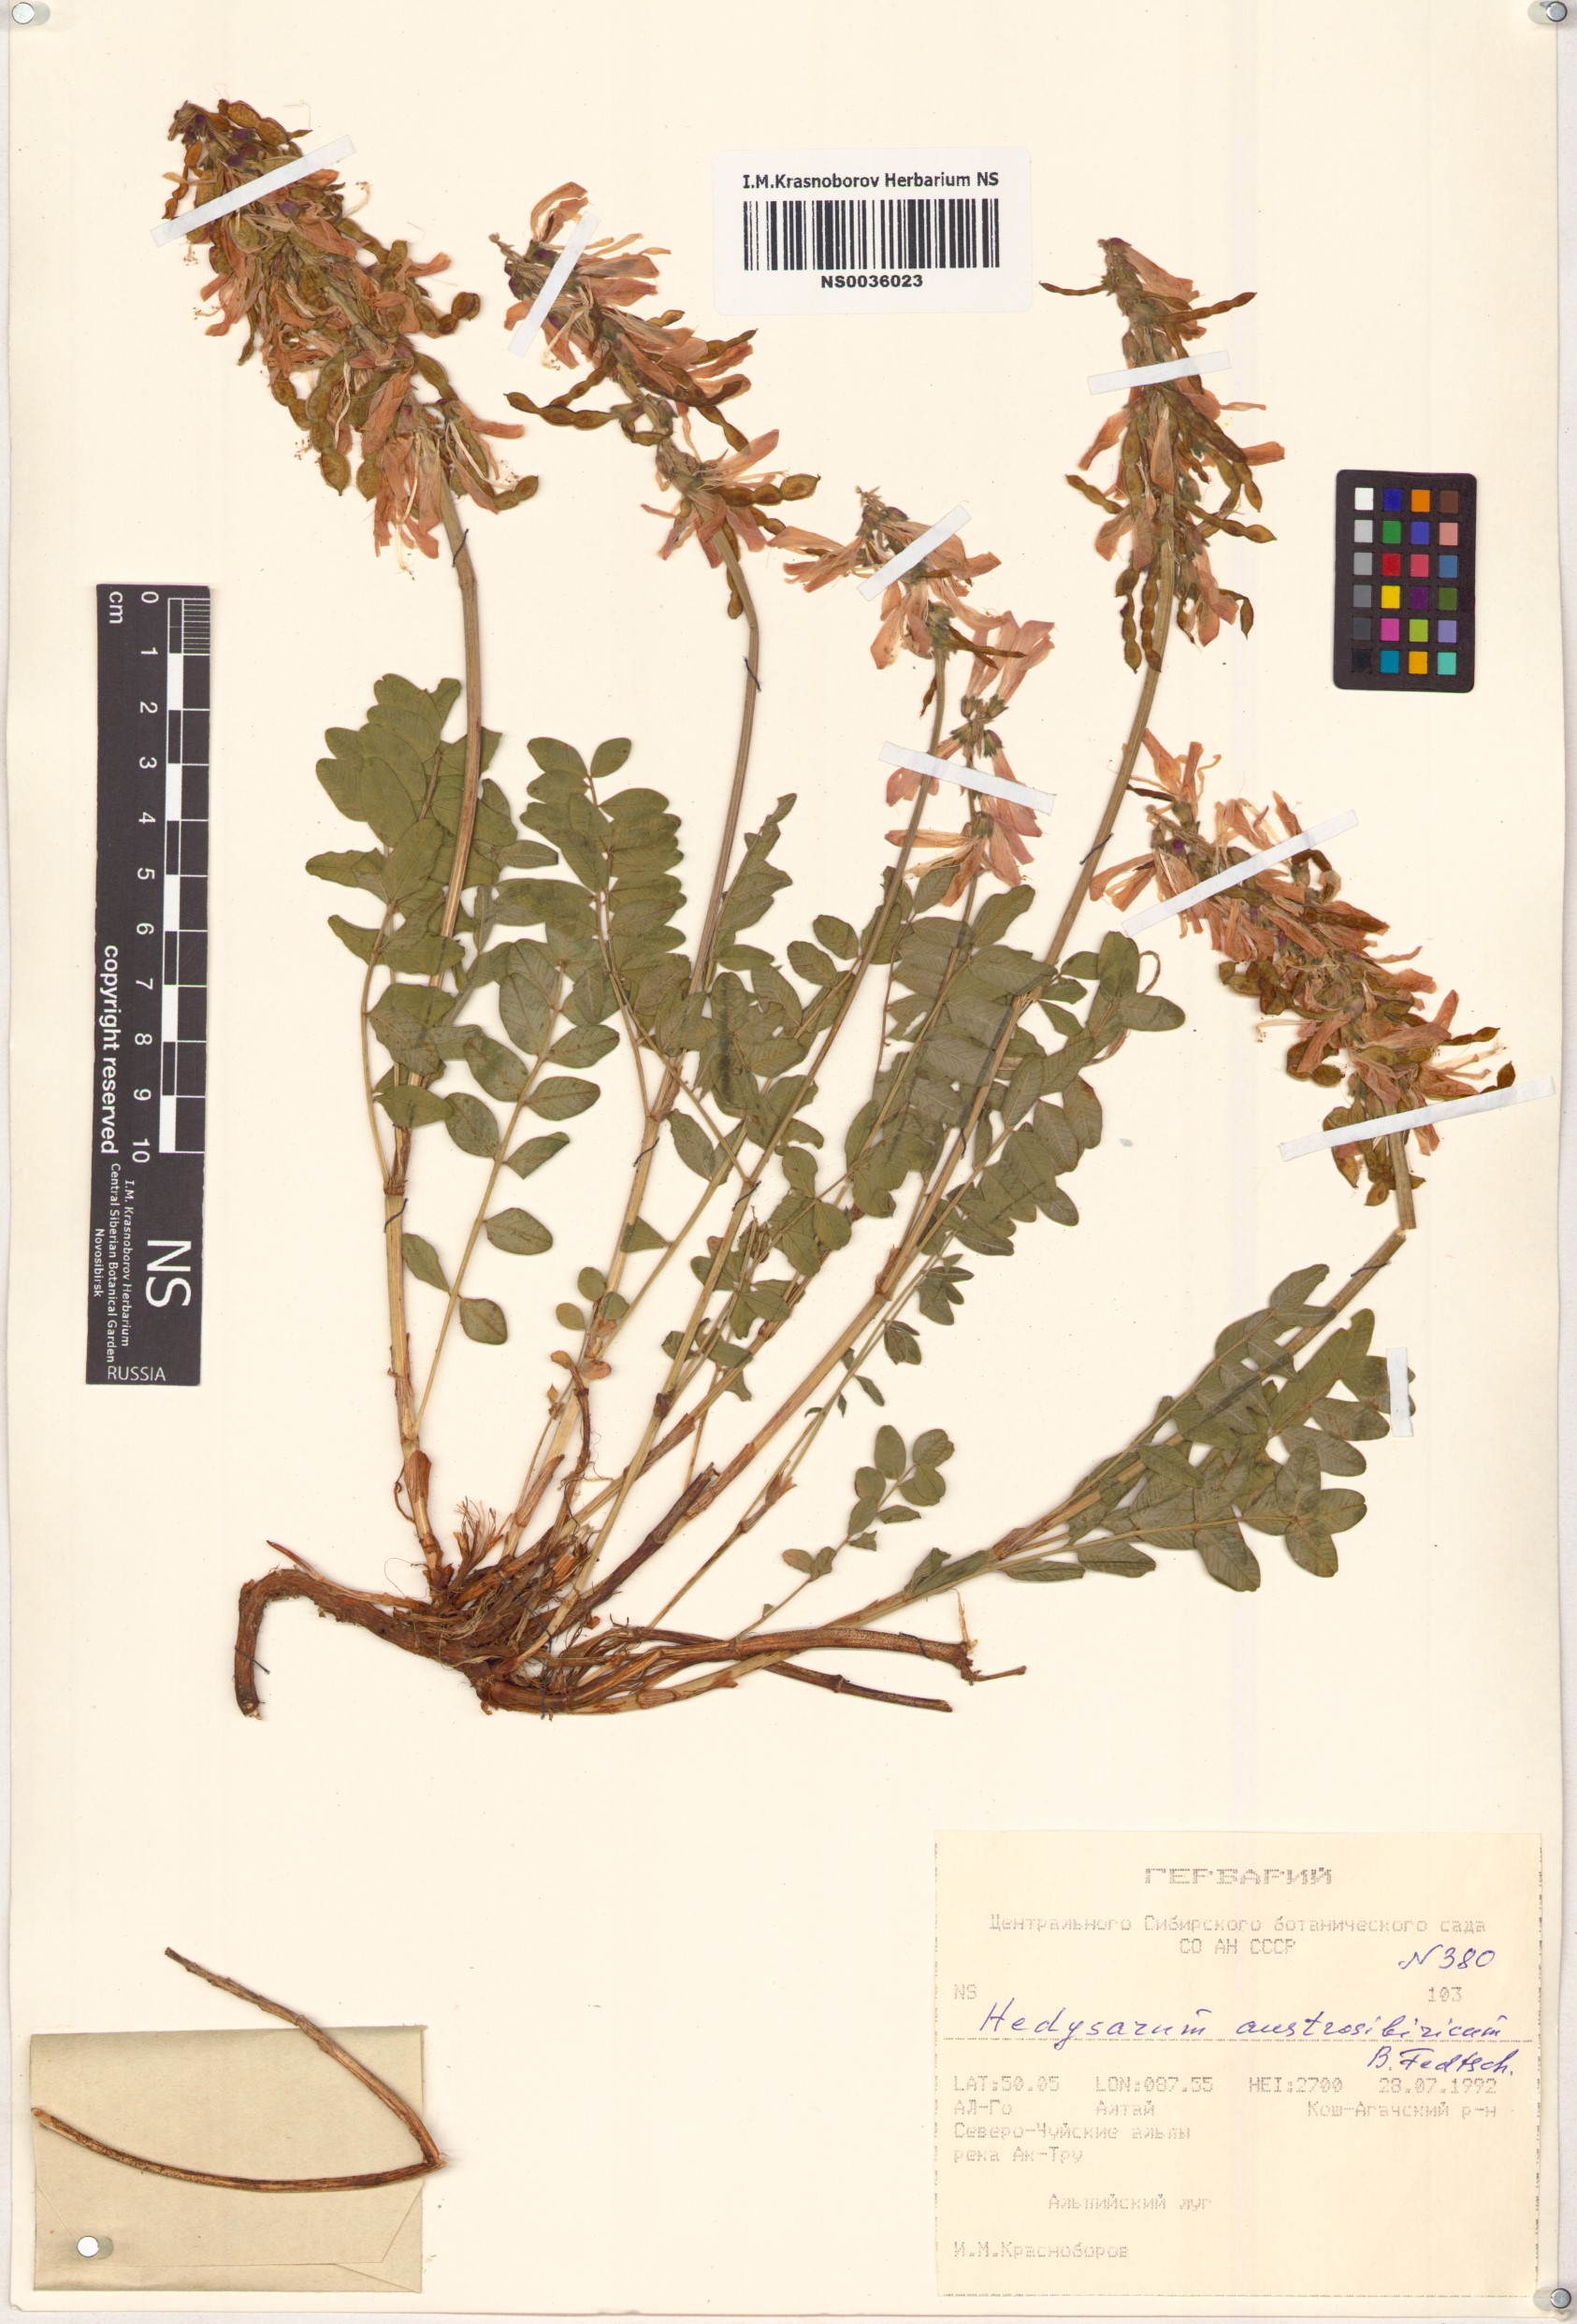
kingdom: Plantae
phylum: Tracheophyta
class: Magnoliopsida
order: Fabales
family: Fabaceae
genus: Hedysarum
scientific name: Hedysarum neglectum
